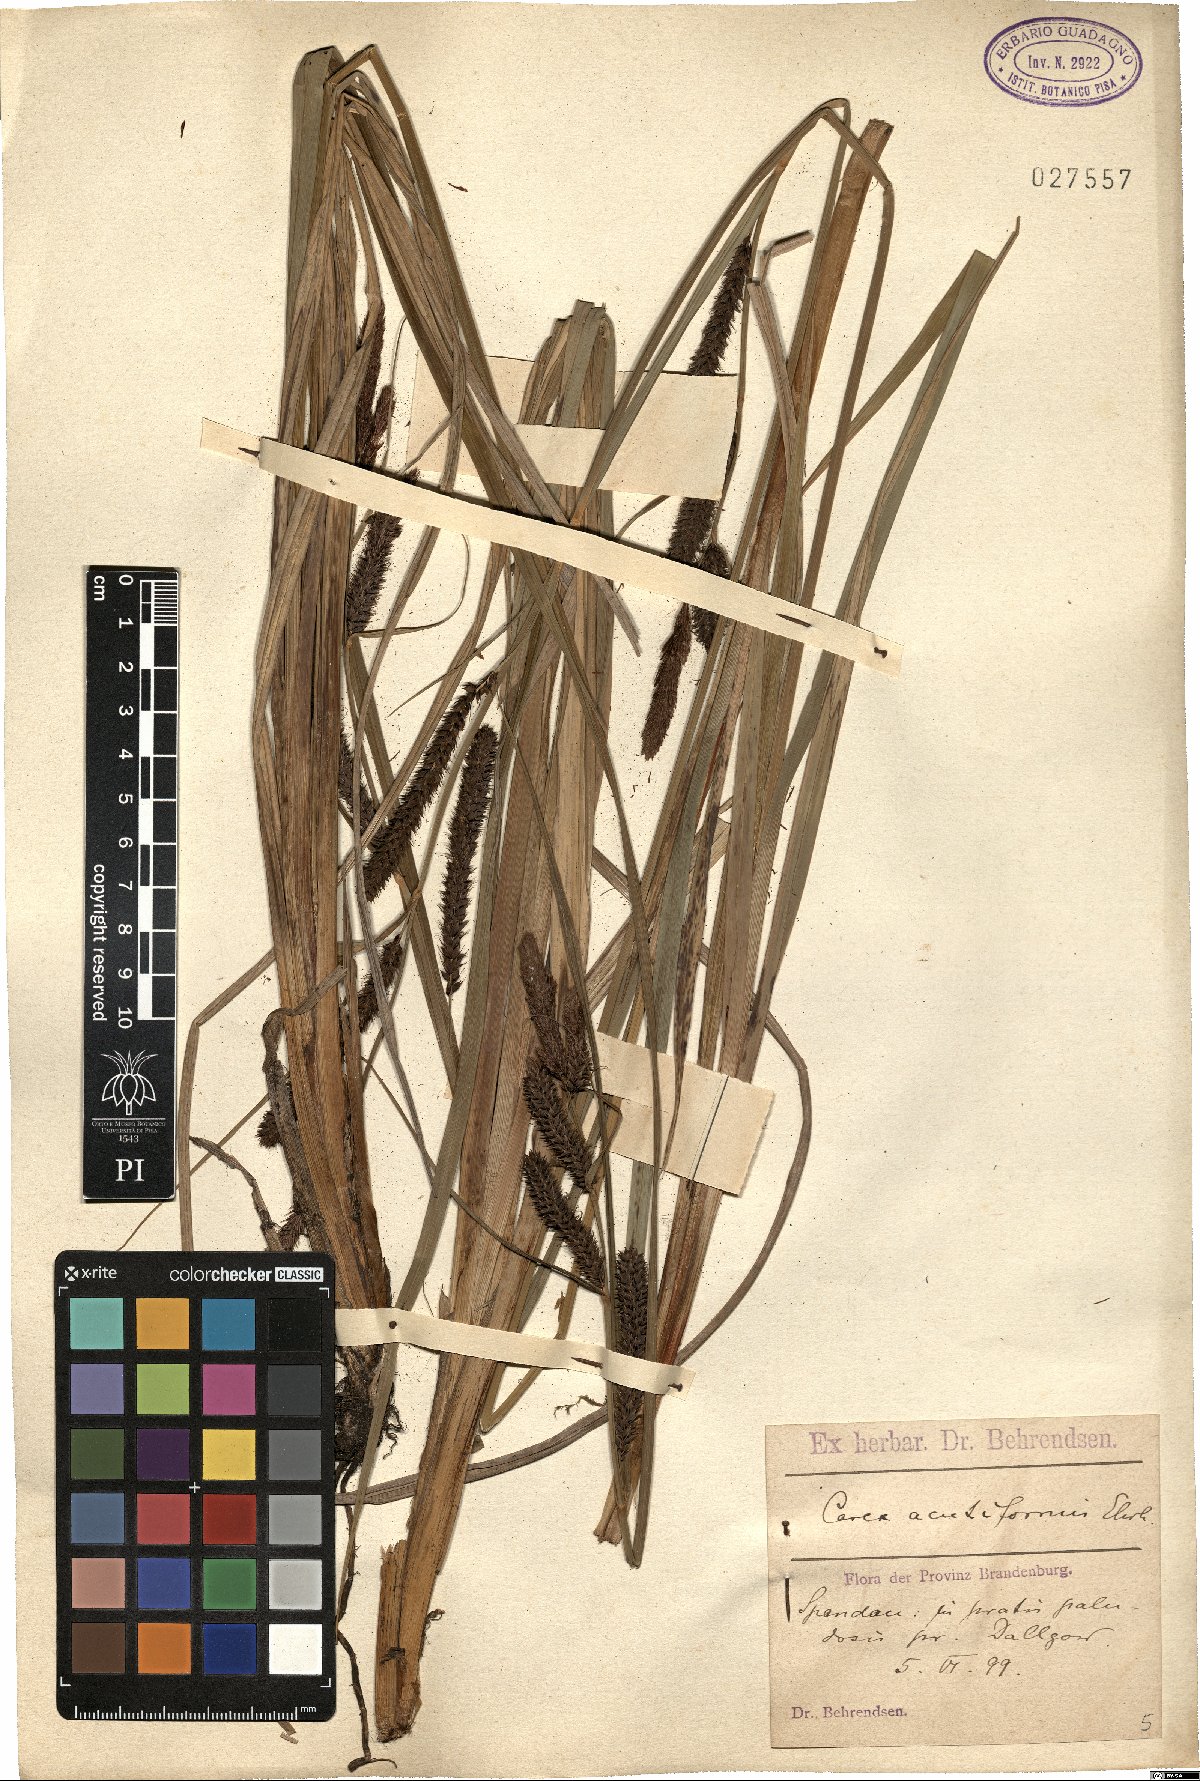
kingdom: Plantae
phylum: Tracheophyta
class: Liliopsida
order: Poales
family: Cyperaceae
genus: Carex
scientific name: Carex acutiformis
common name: Lesser pond-sedge
